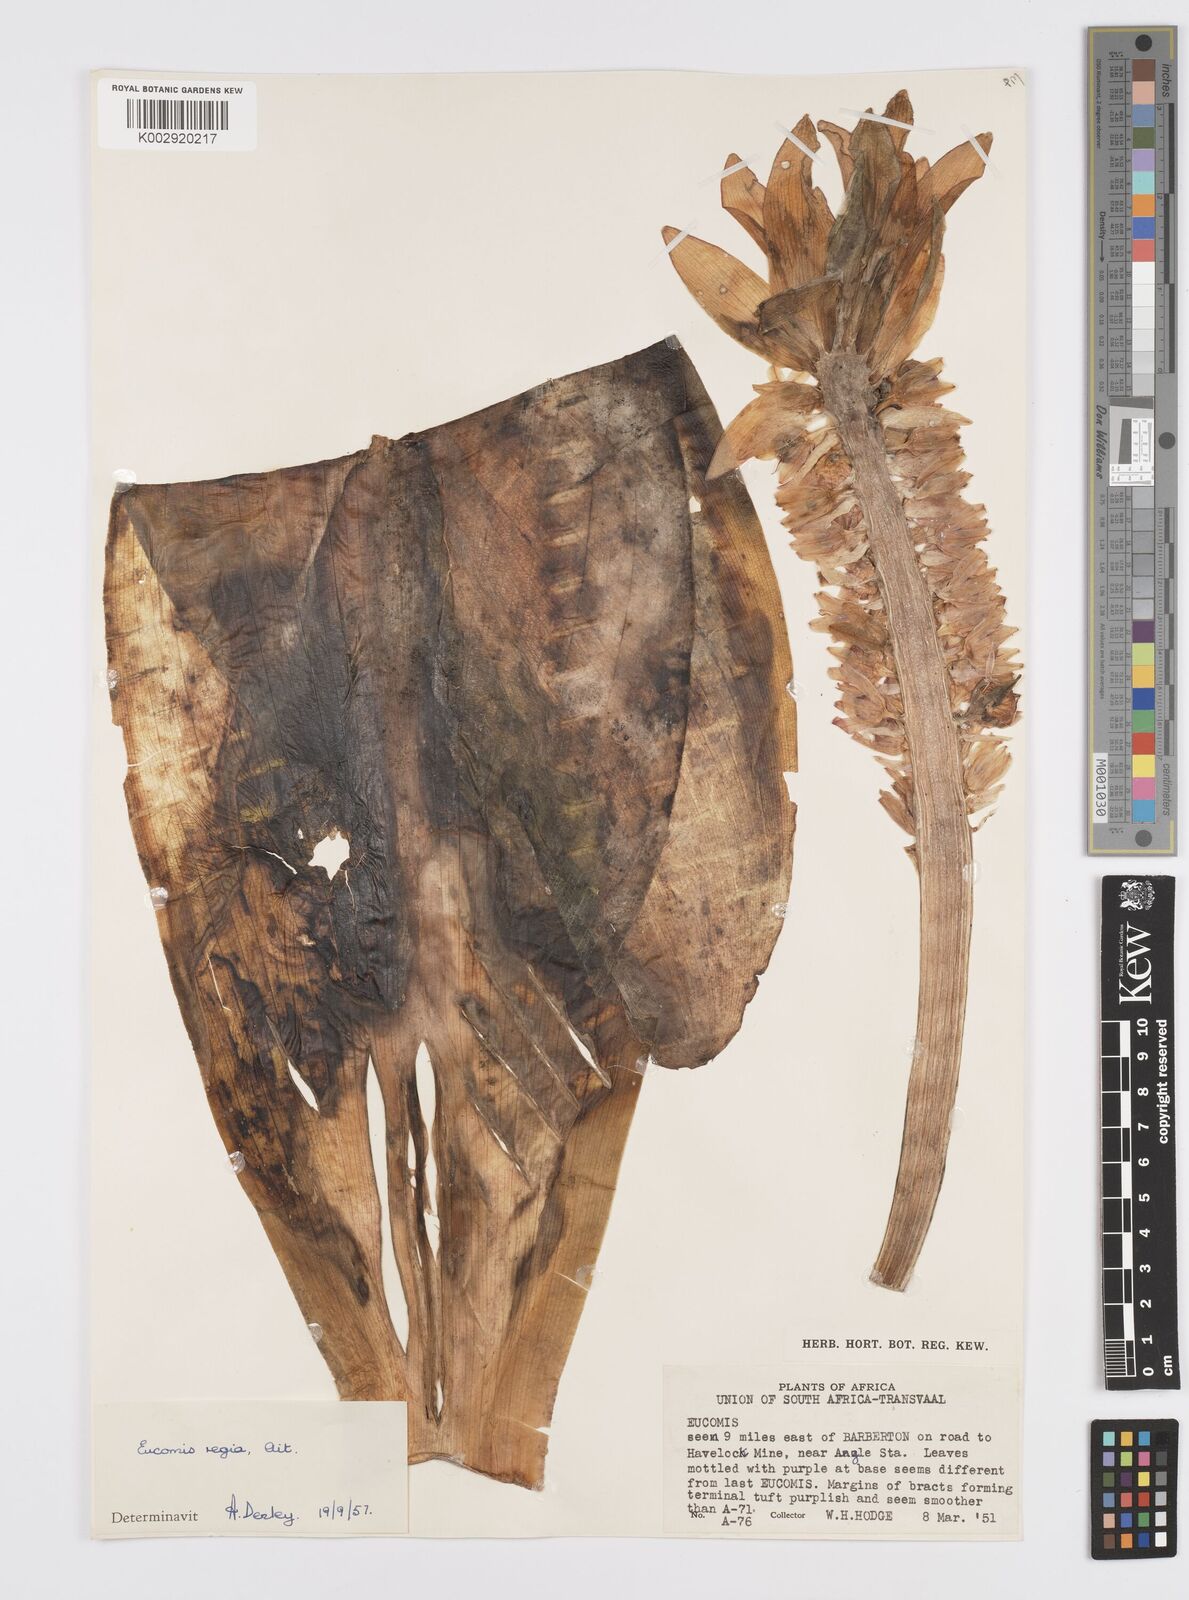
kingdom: Plantae
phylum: Tracheophyta
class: Liliopsida
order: Asparagales
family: Asparagaceae
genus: Eucomis
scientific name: Eucomis
